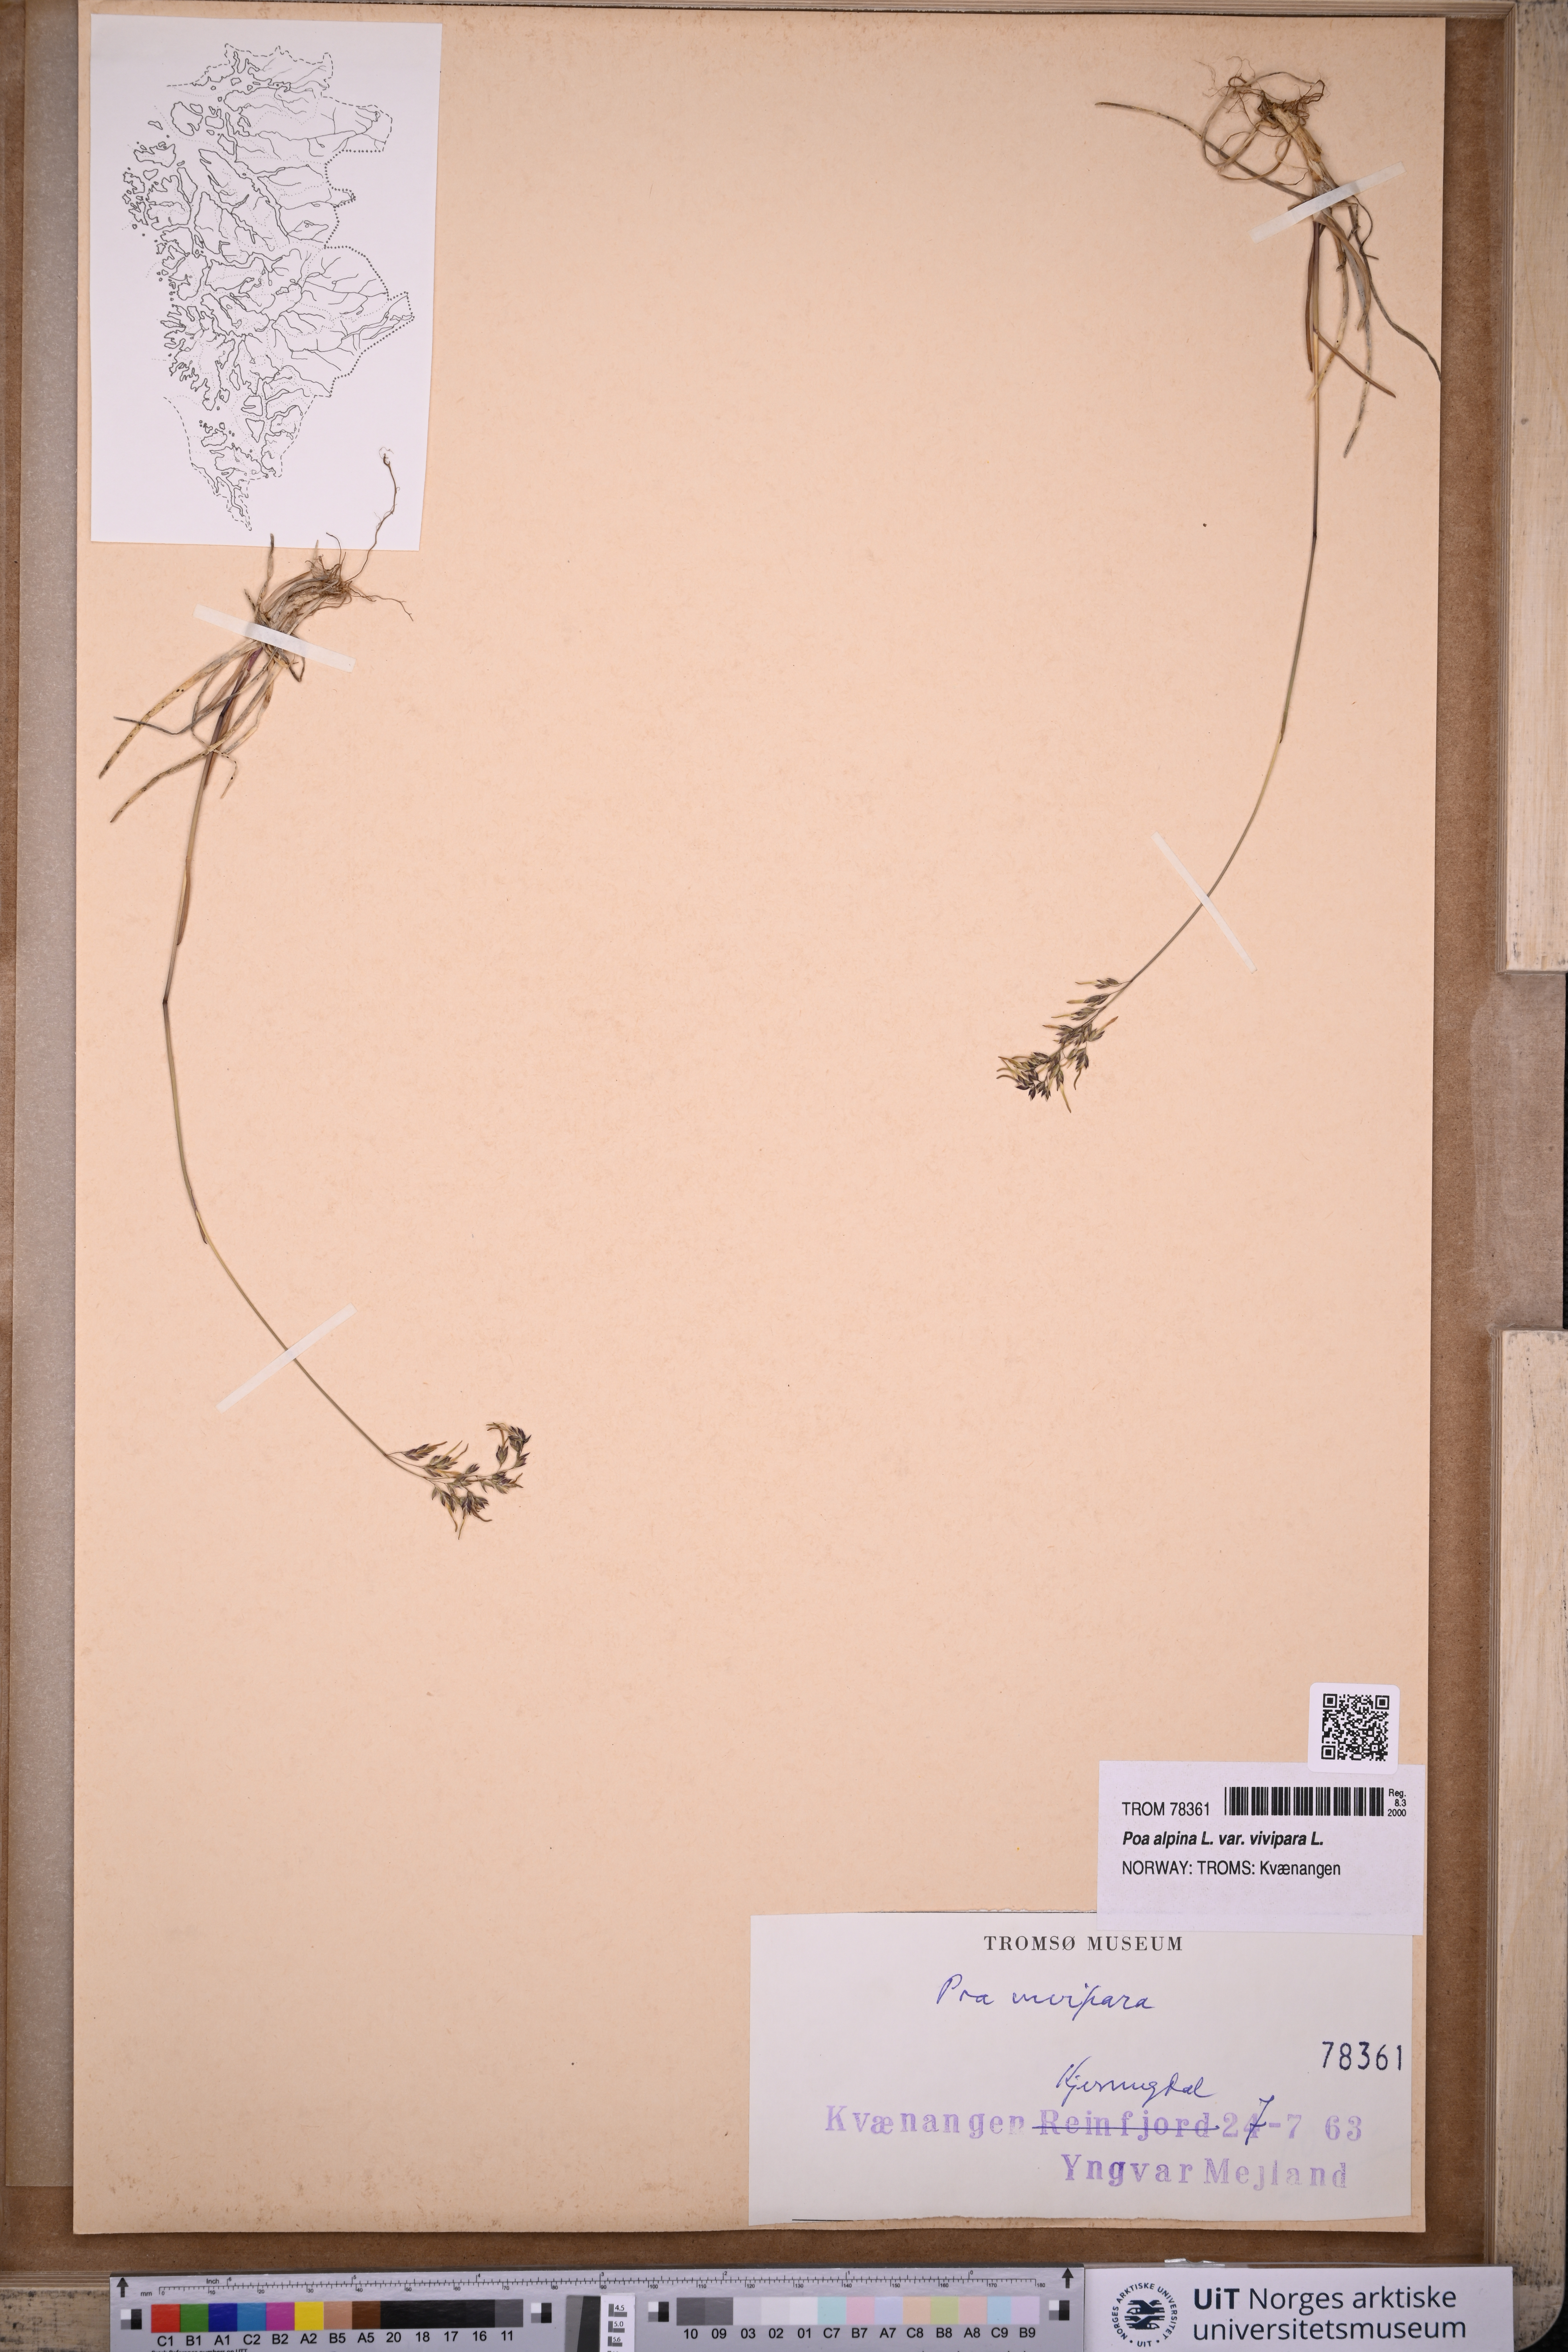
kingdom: Plantae
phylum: Tracheophyta
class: Liliopsida
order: Poales
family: Poaceae
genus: Poa
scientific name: Poa alpina
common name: Alpine bluegrass
